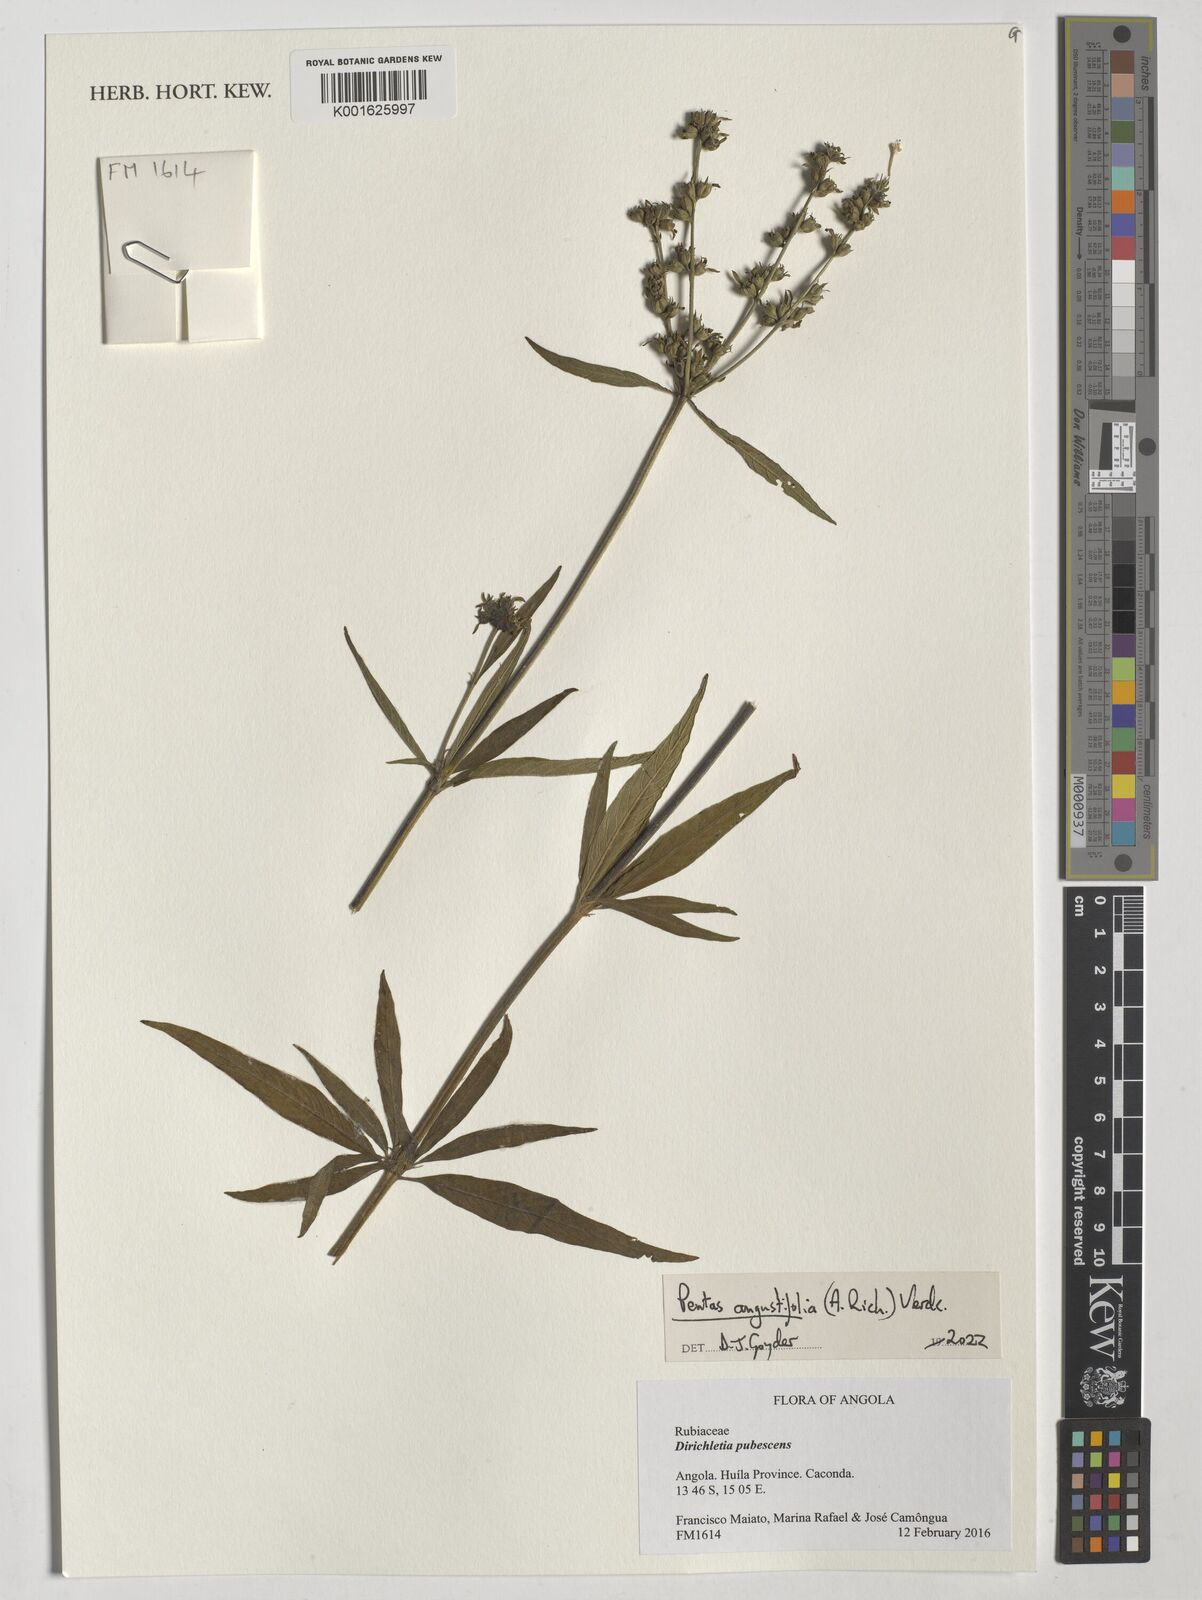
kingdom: Plantae
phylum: Tracheophyta
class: Magnoliopsida
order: Gentianales
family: Rubiaceae
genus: Pentas
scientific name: Pentas angustifolia
